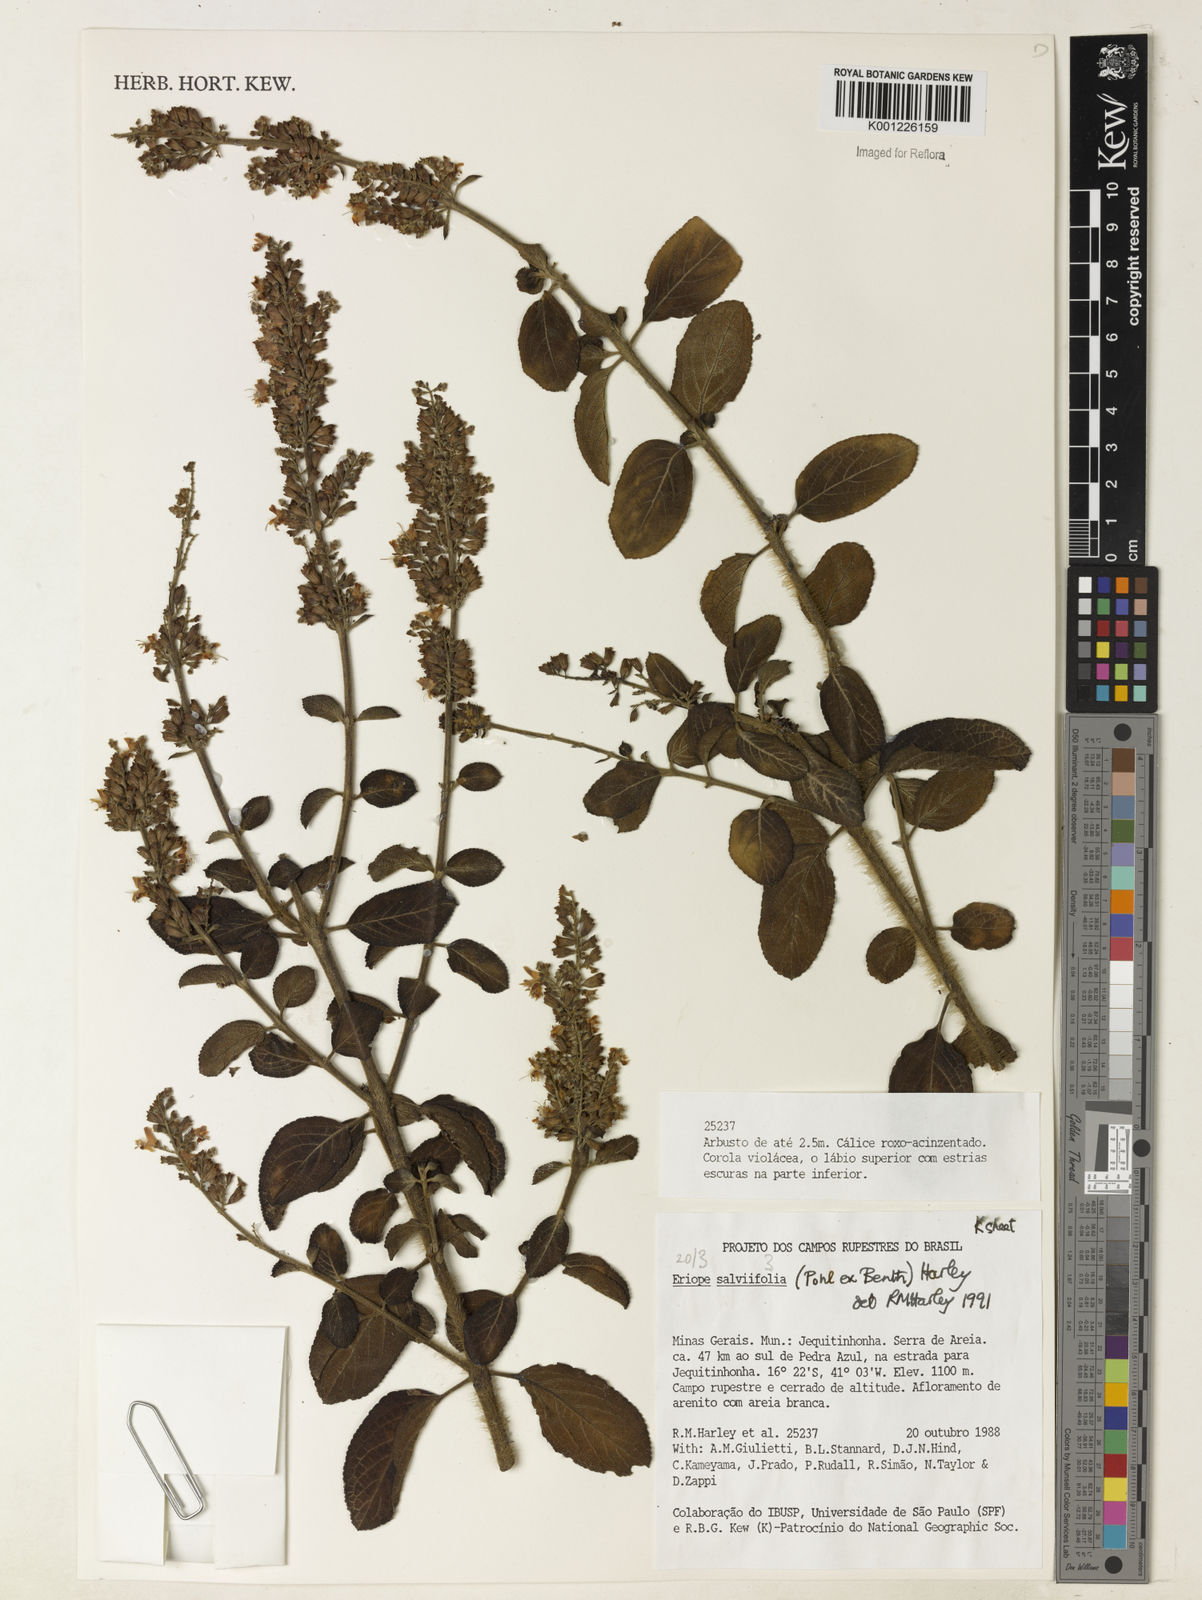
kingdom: Plantae
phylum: Tracheophyta
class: Magnoliopsida
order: Lamiales
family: Lamiaceae
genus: Eriope
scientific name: Eriope salviifolia
